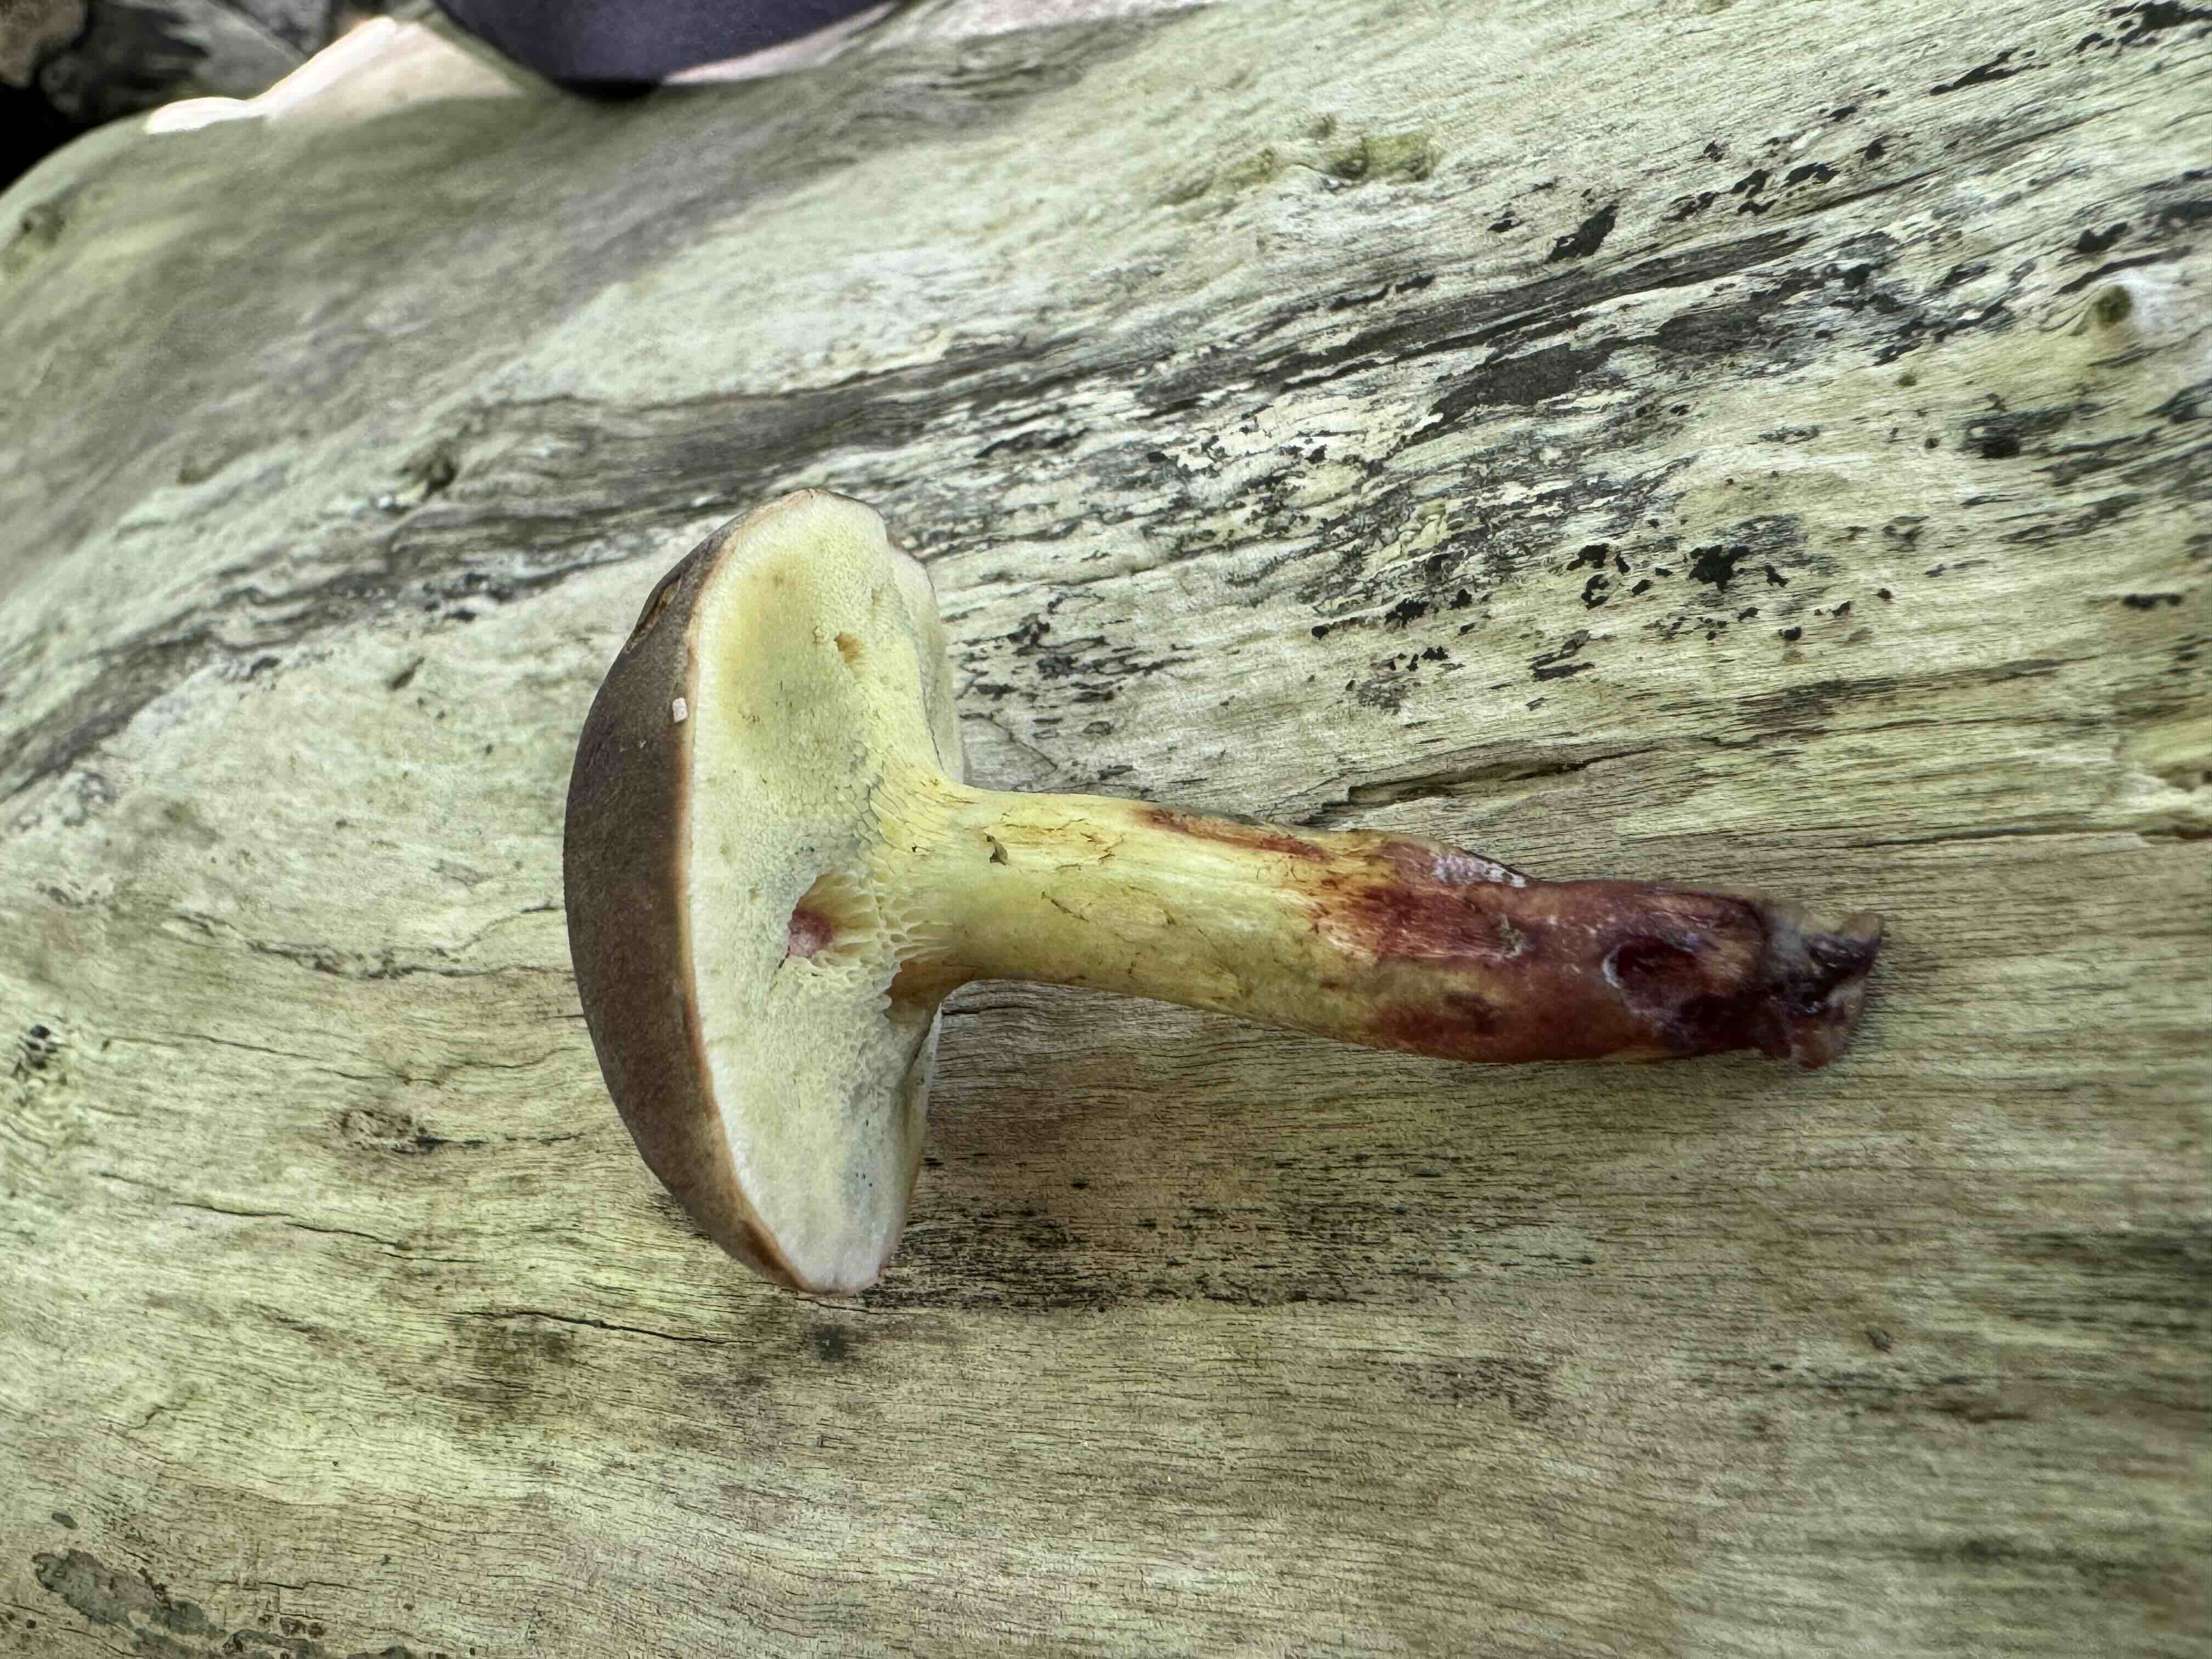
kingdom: Fungi
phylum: Basidiomycota
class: Agaricomycetes
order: Boletales
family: Boletaceae
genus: Xerocomellus
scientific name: Xerocomellus pruinatus
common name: dugget rørhat
